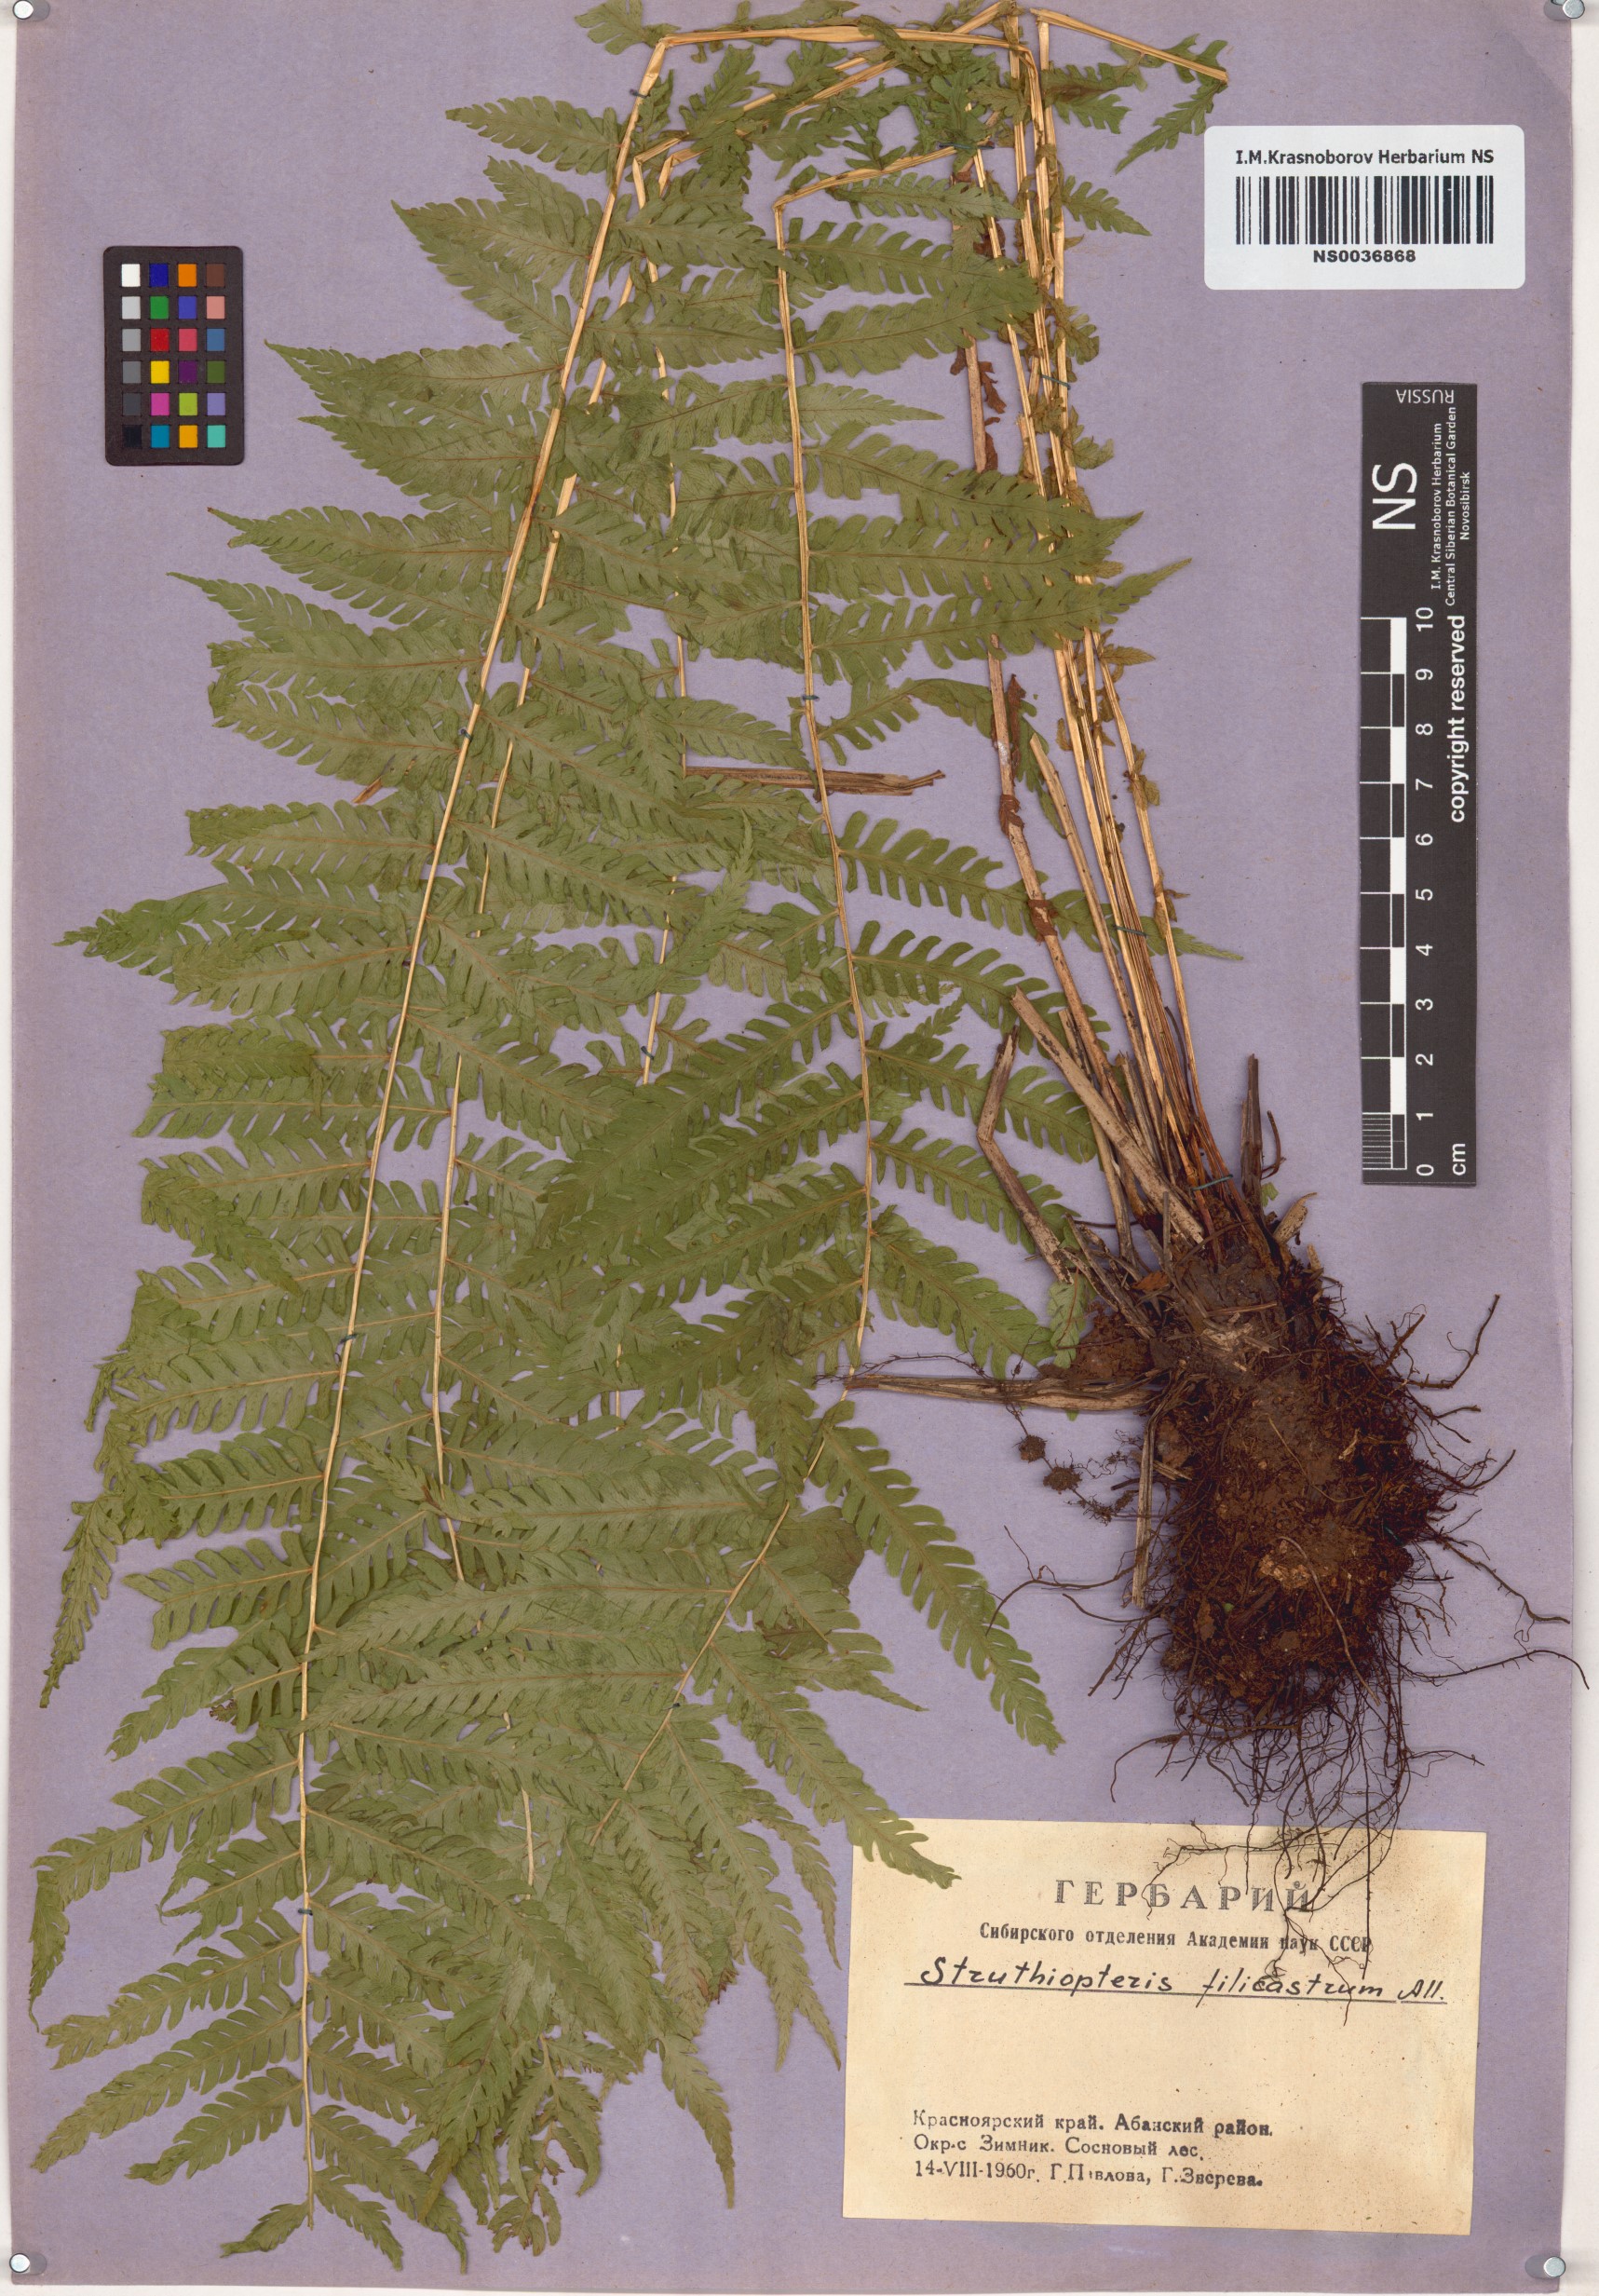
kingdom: Plantae
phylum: Tracheophyta
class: Polypodiopsida
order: Polypodiales
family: Onocleaceae
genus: Matteuccia
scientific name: Matteuccia struthiopteris
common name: Ostrich fern
